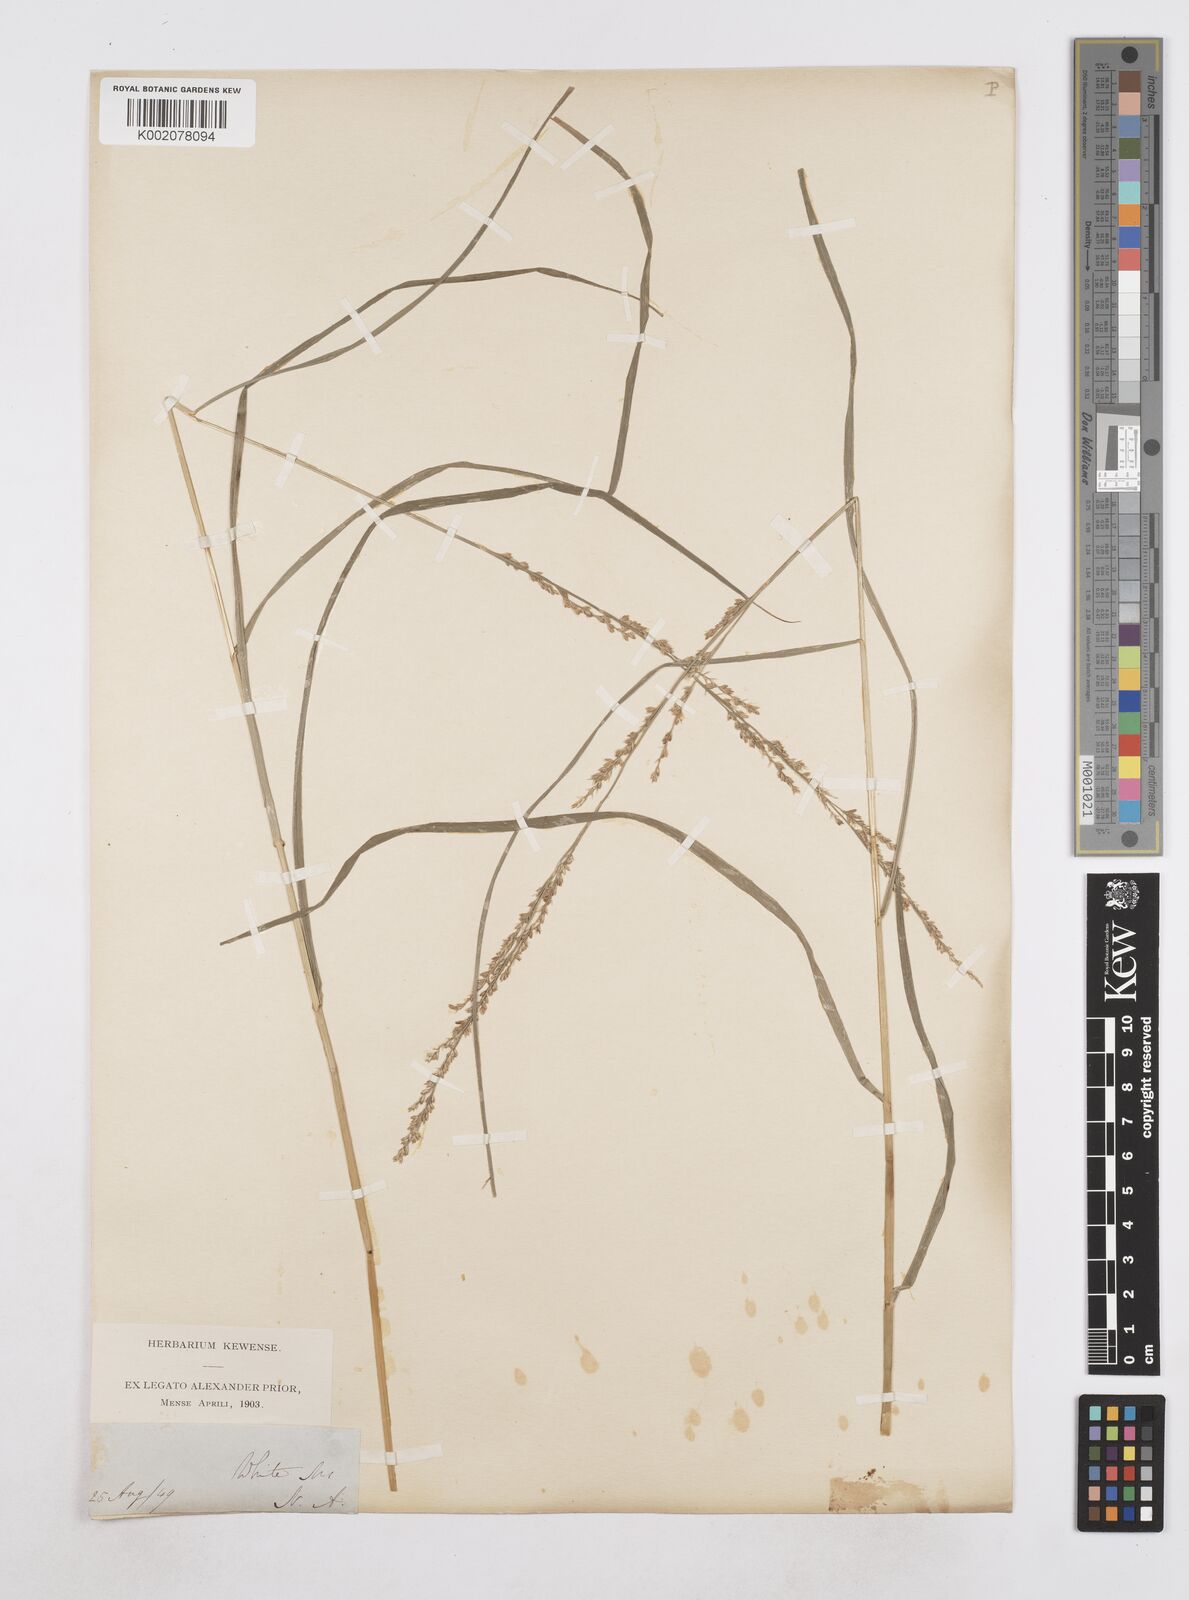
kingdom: Plantae
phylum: Tracheophyta
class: Liliopsida
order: Poales
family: Poaceae
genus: Poa
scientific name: Poa
